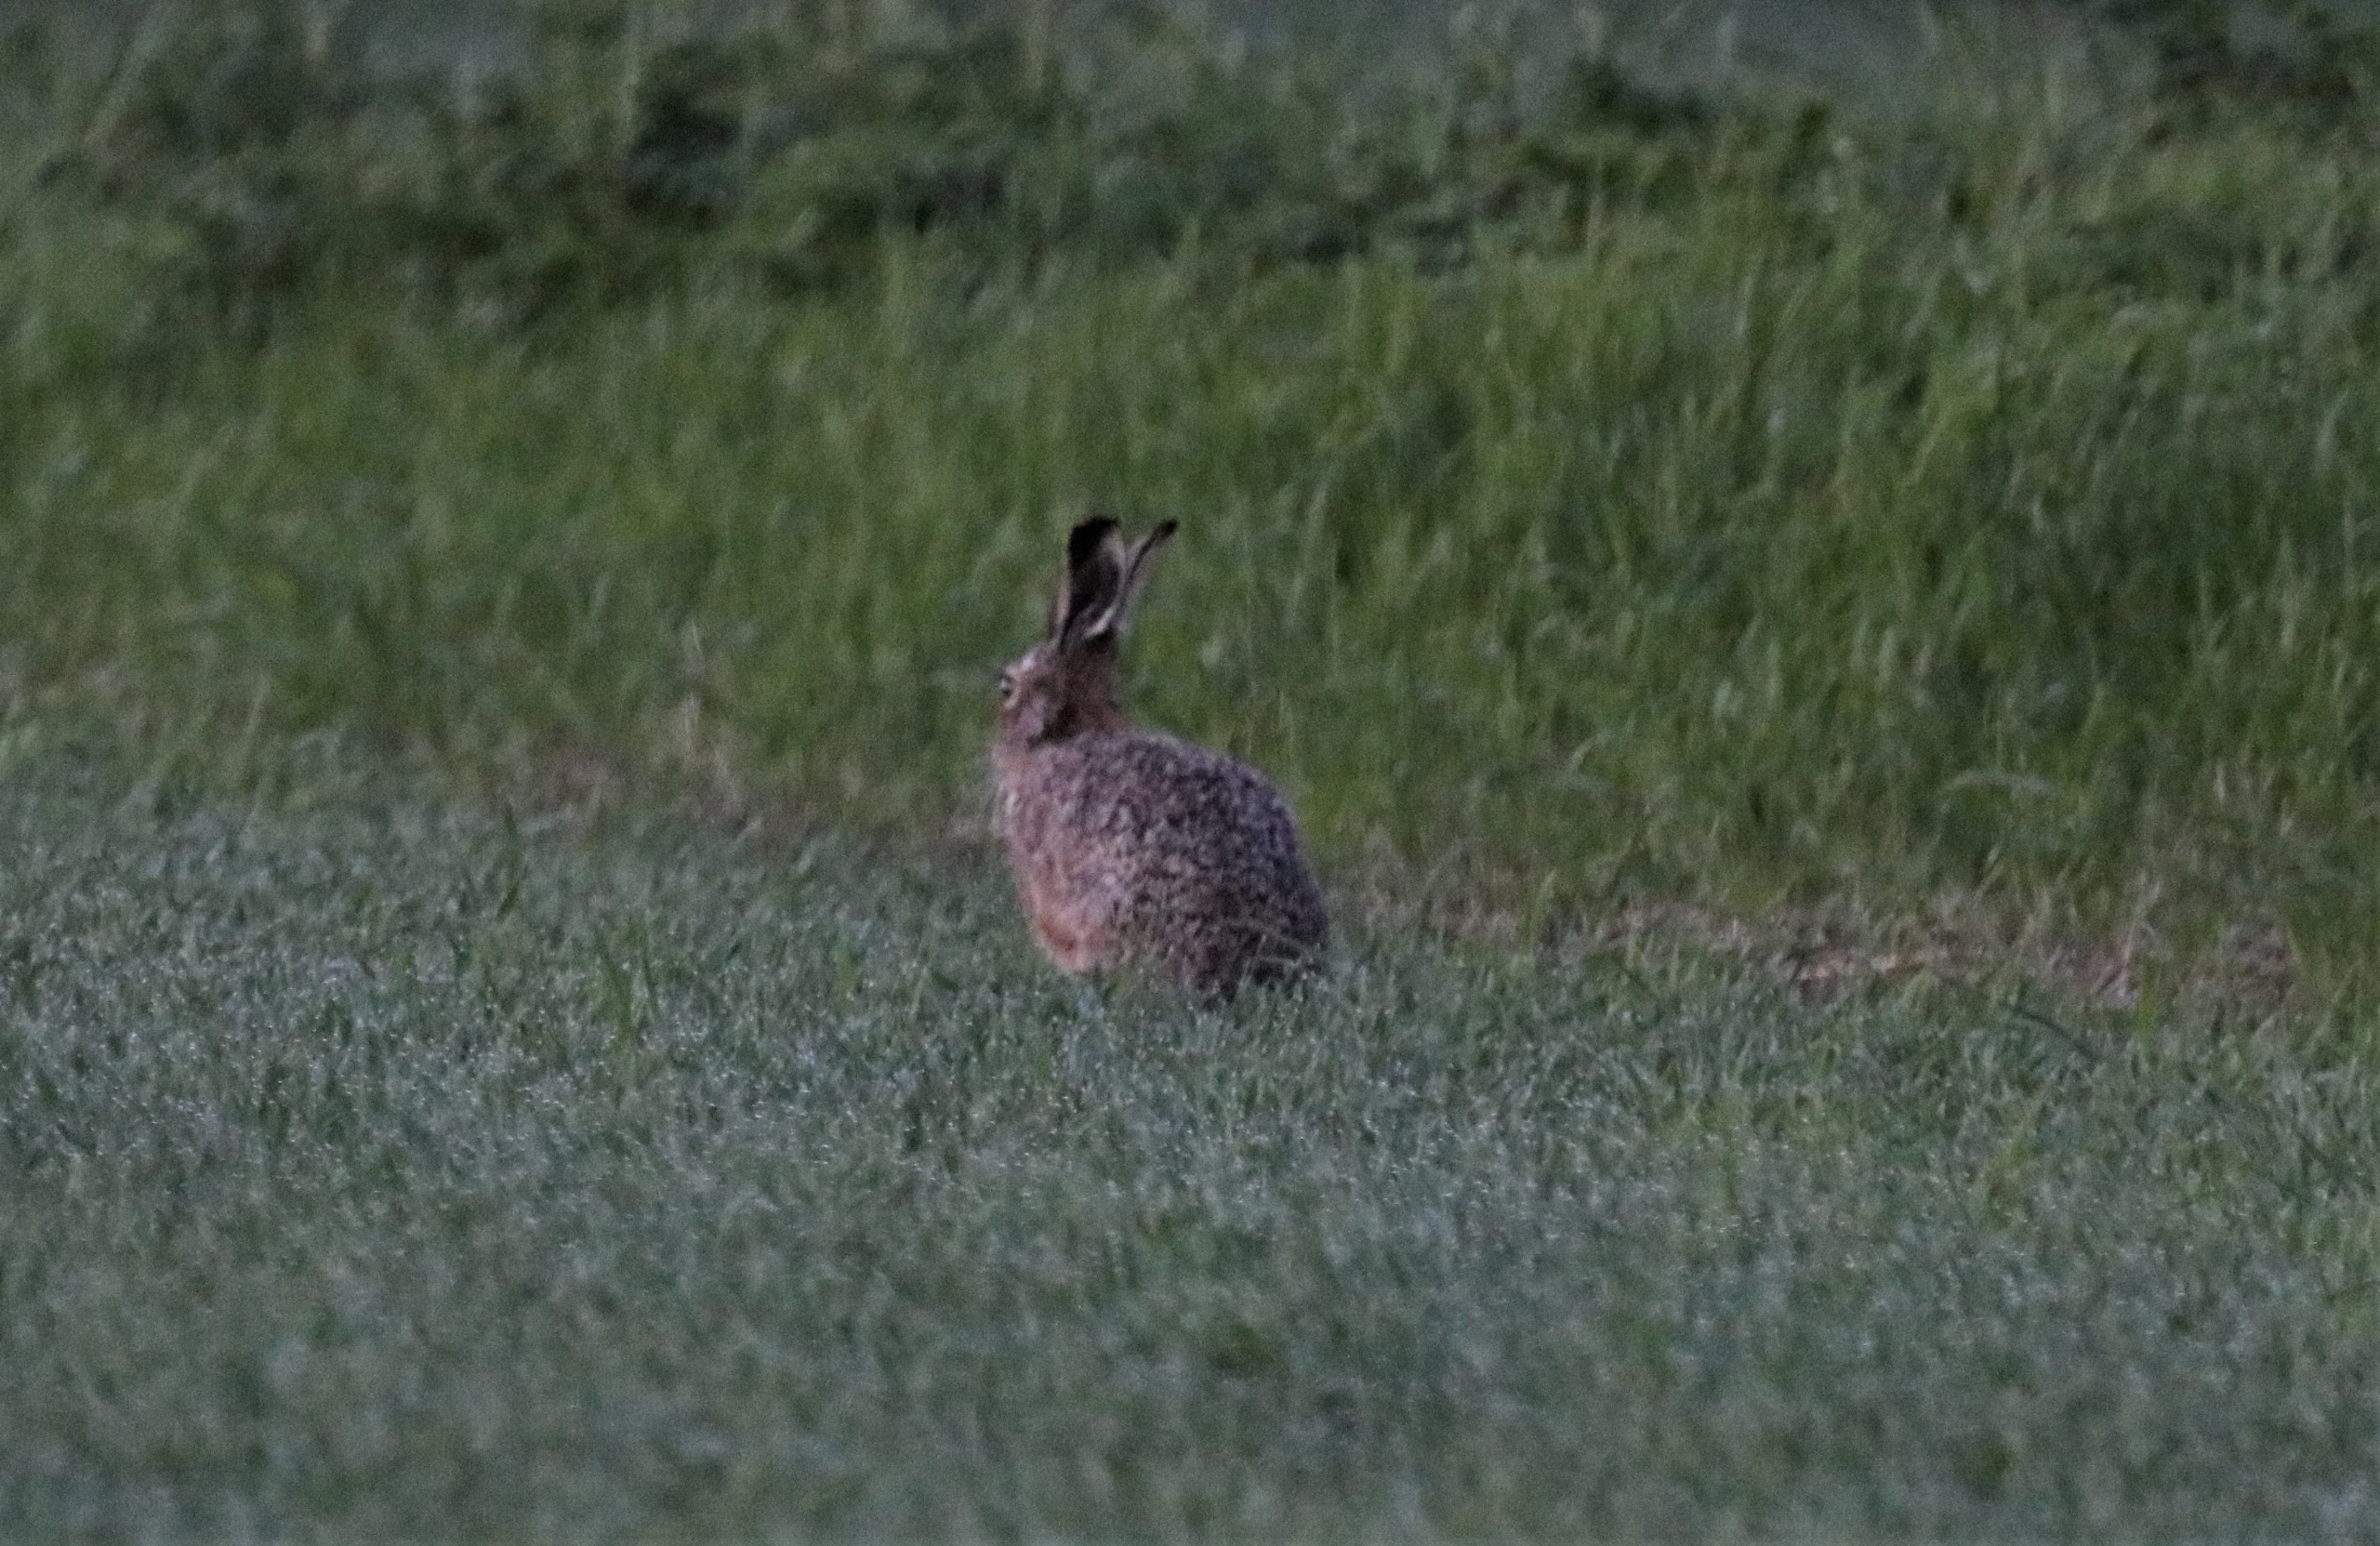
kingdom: Animalia
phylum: Chordata
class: Mammalia
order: Lagomorpha
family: Leporidae
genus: Lepus
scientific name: Lepus europaeus
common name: Hare
